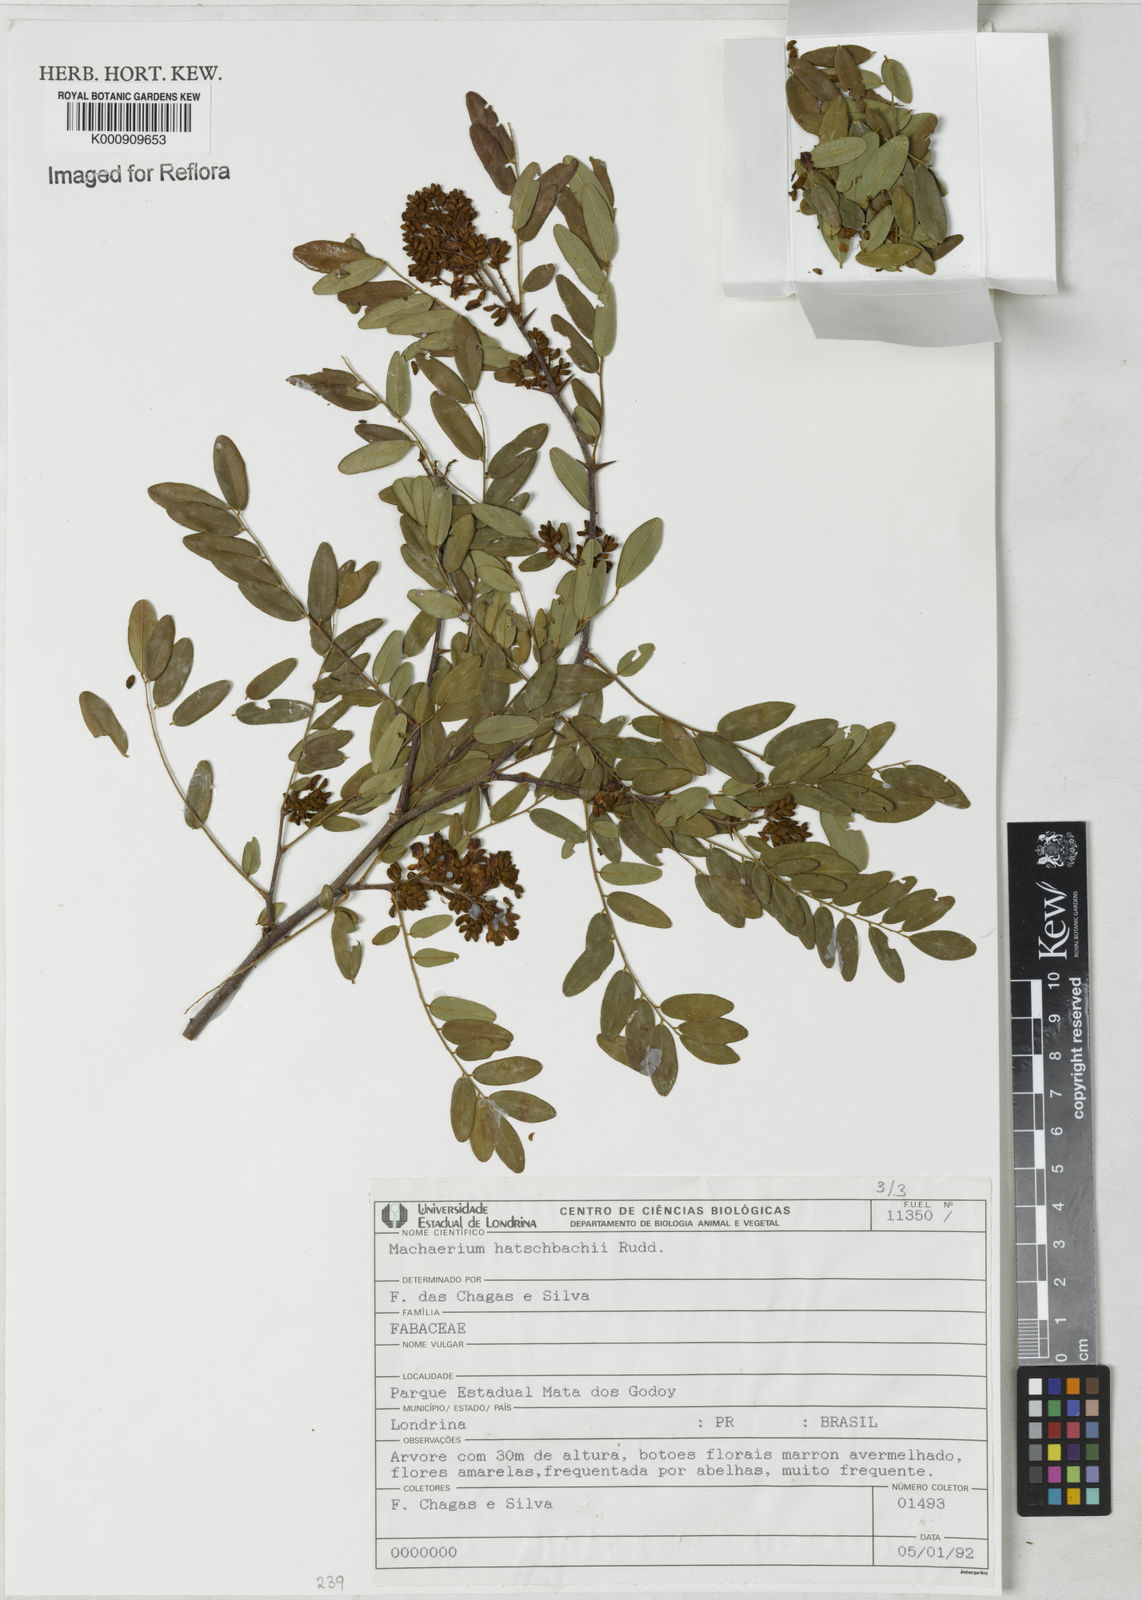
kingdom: Plantae
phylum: Tracheophyta
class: Magnoliopsida
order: Fabales
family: Fabaceae
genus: Machaerium
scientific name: Machaerium hatschbachii
